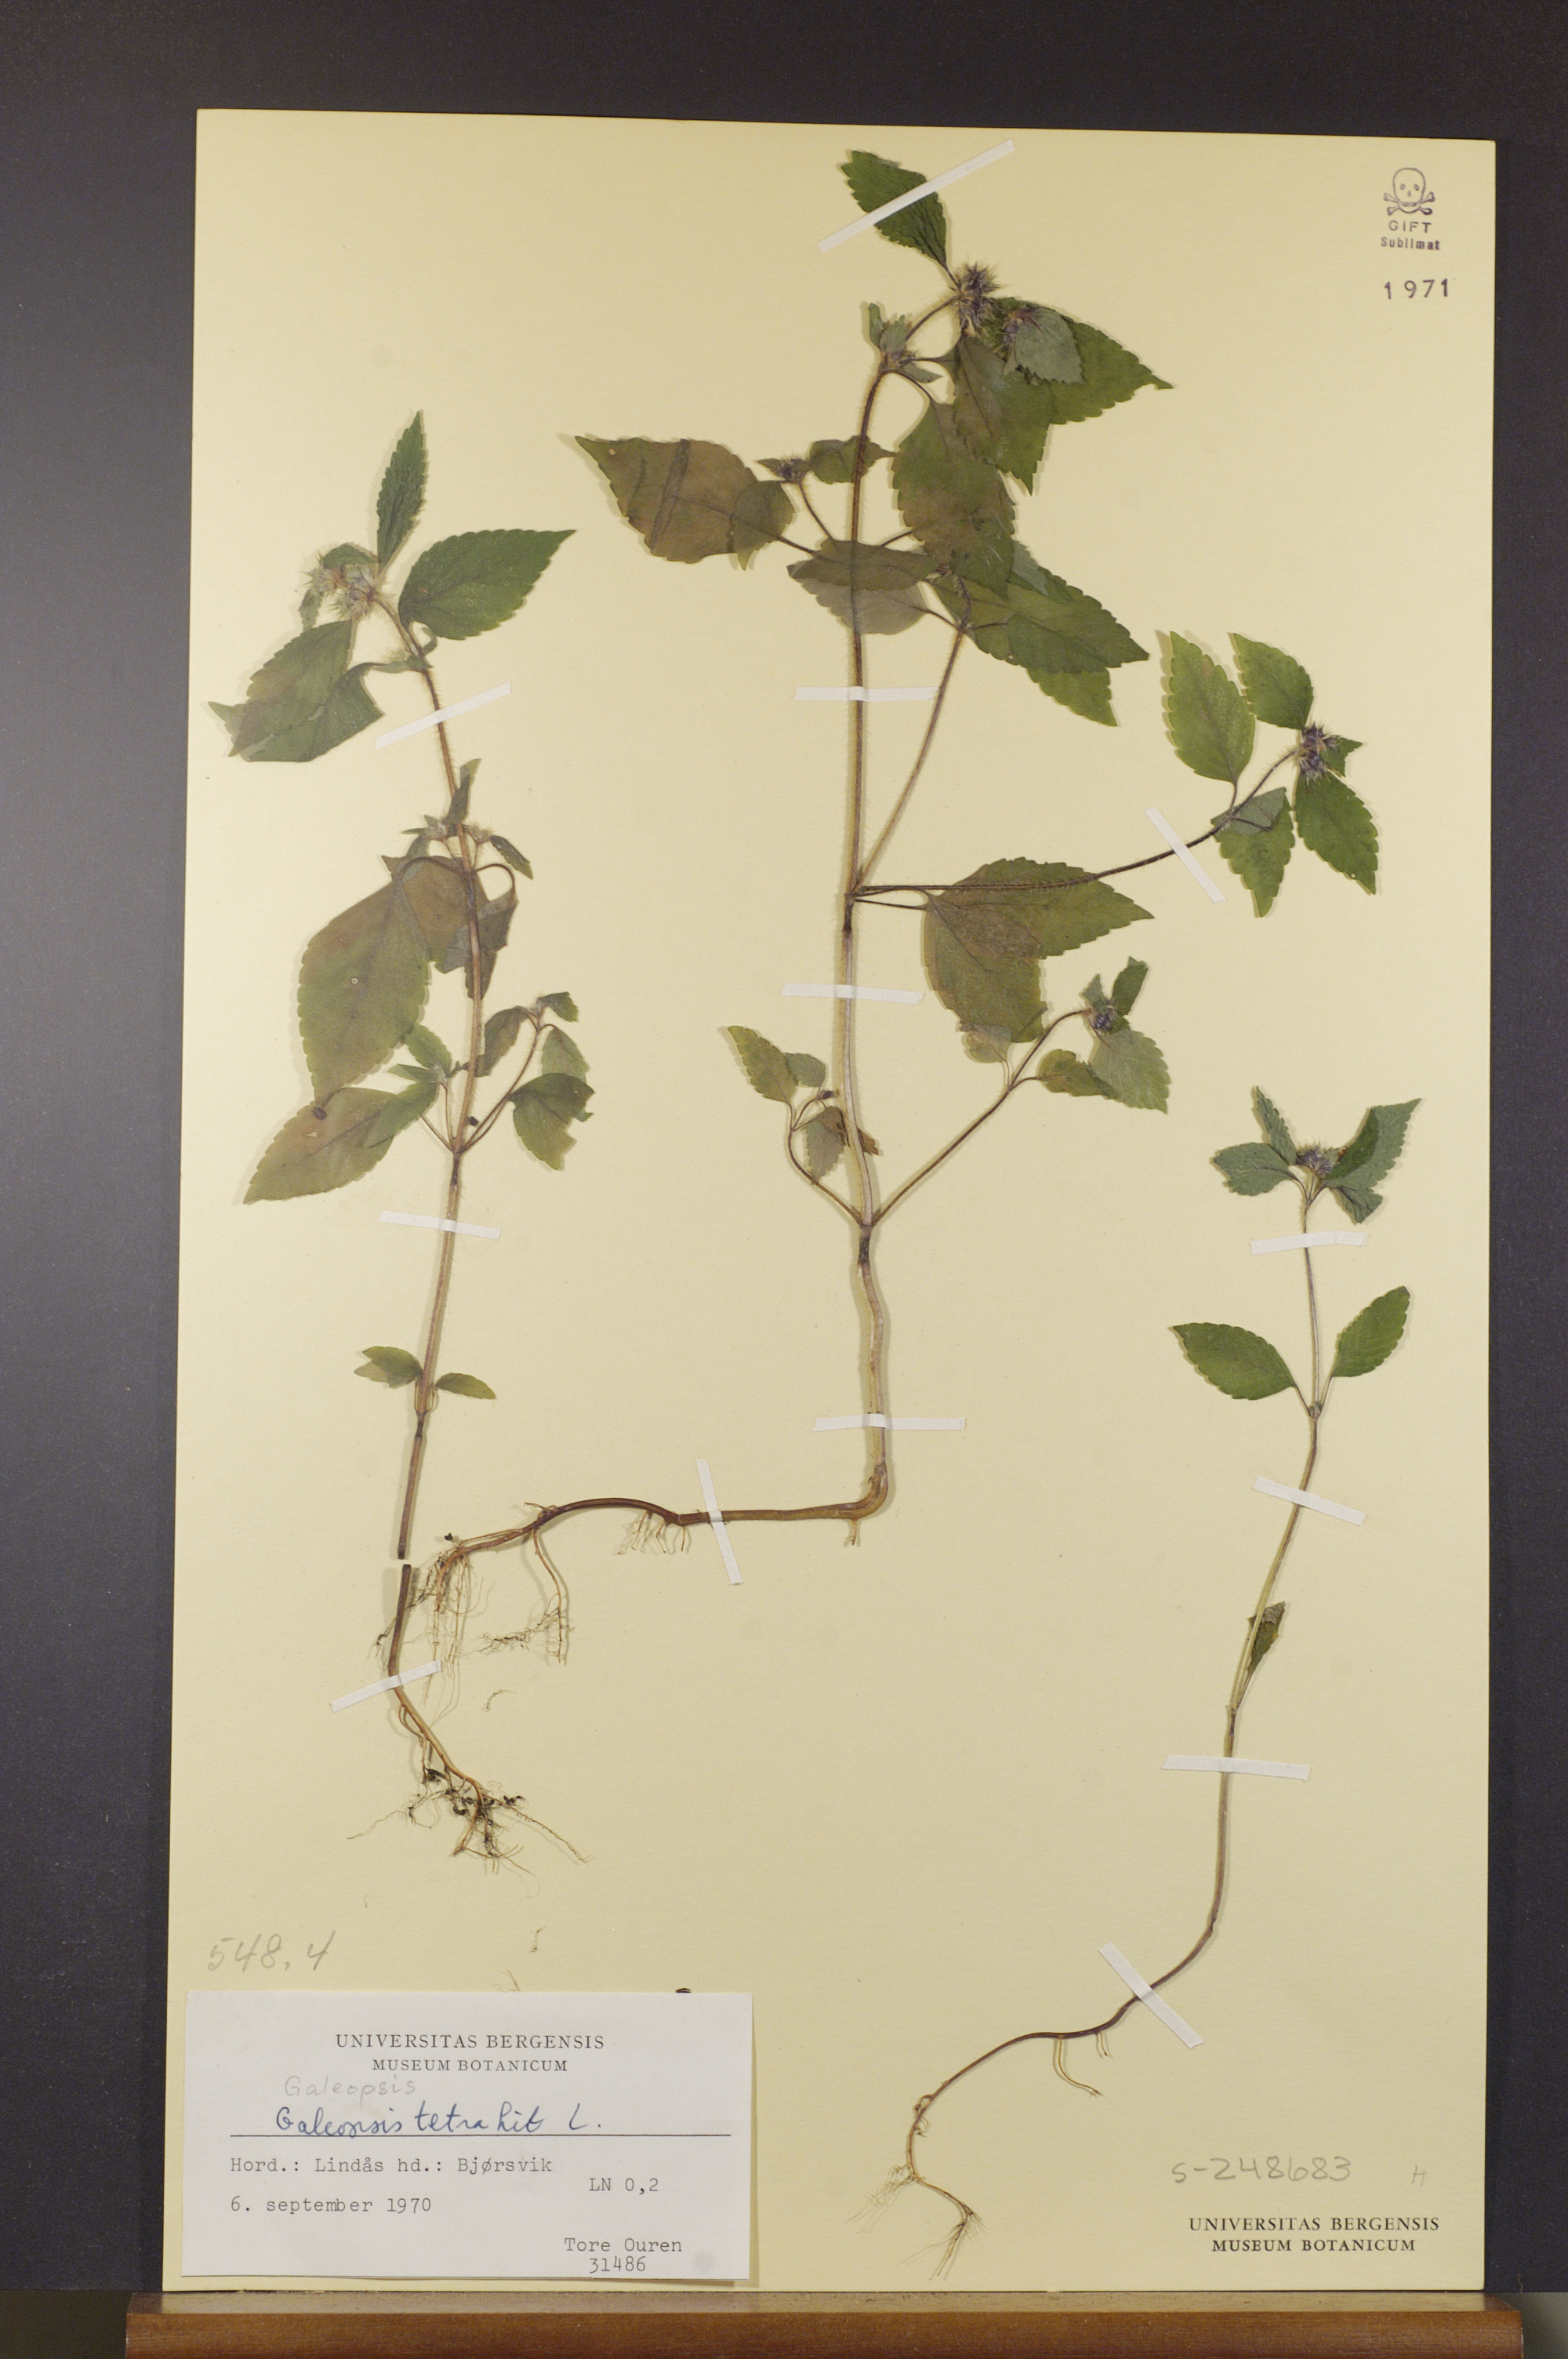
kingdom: Plantae
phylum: Tracheophyta
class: Magnoliopsida
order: Lamiales
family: Lamiaceae
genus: Galeopsis
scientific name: Galeopsis tetrahit
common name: Common hemp-nettle
